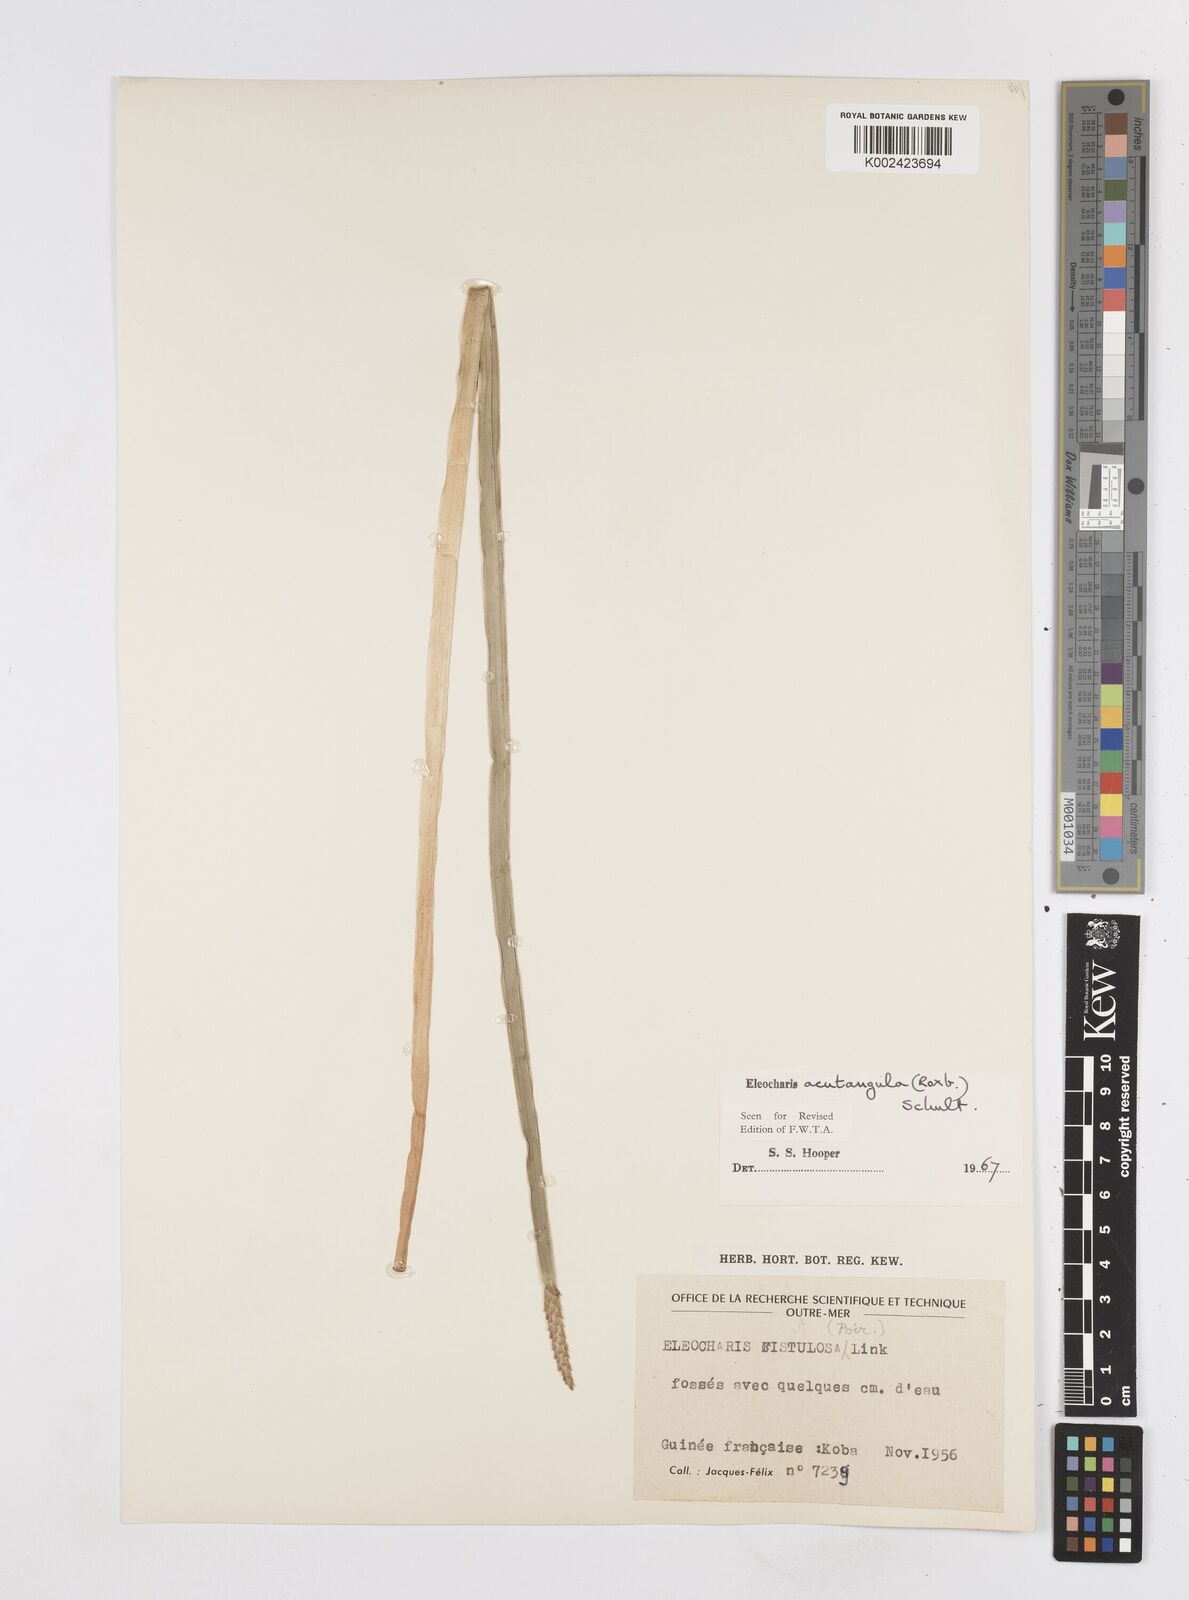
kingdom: Plantae
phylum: Tracheophyta
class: Liliopsida
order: Poales
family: Cyperaceae
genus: Eleocharis
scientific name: Eleocharis acutangula
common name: Acute spikerush
